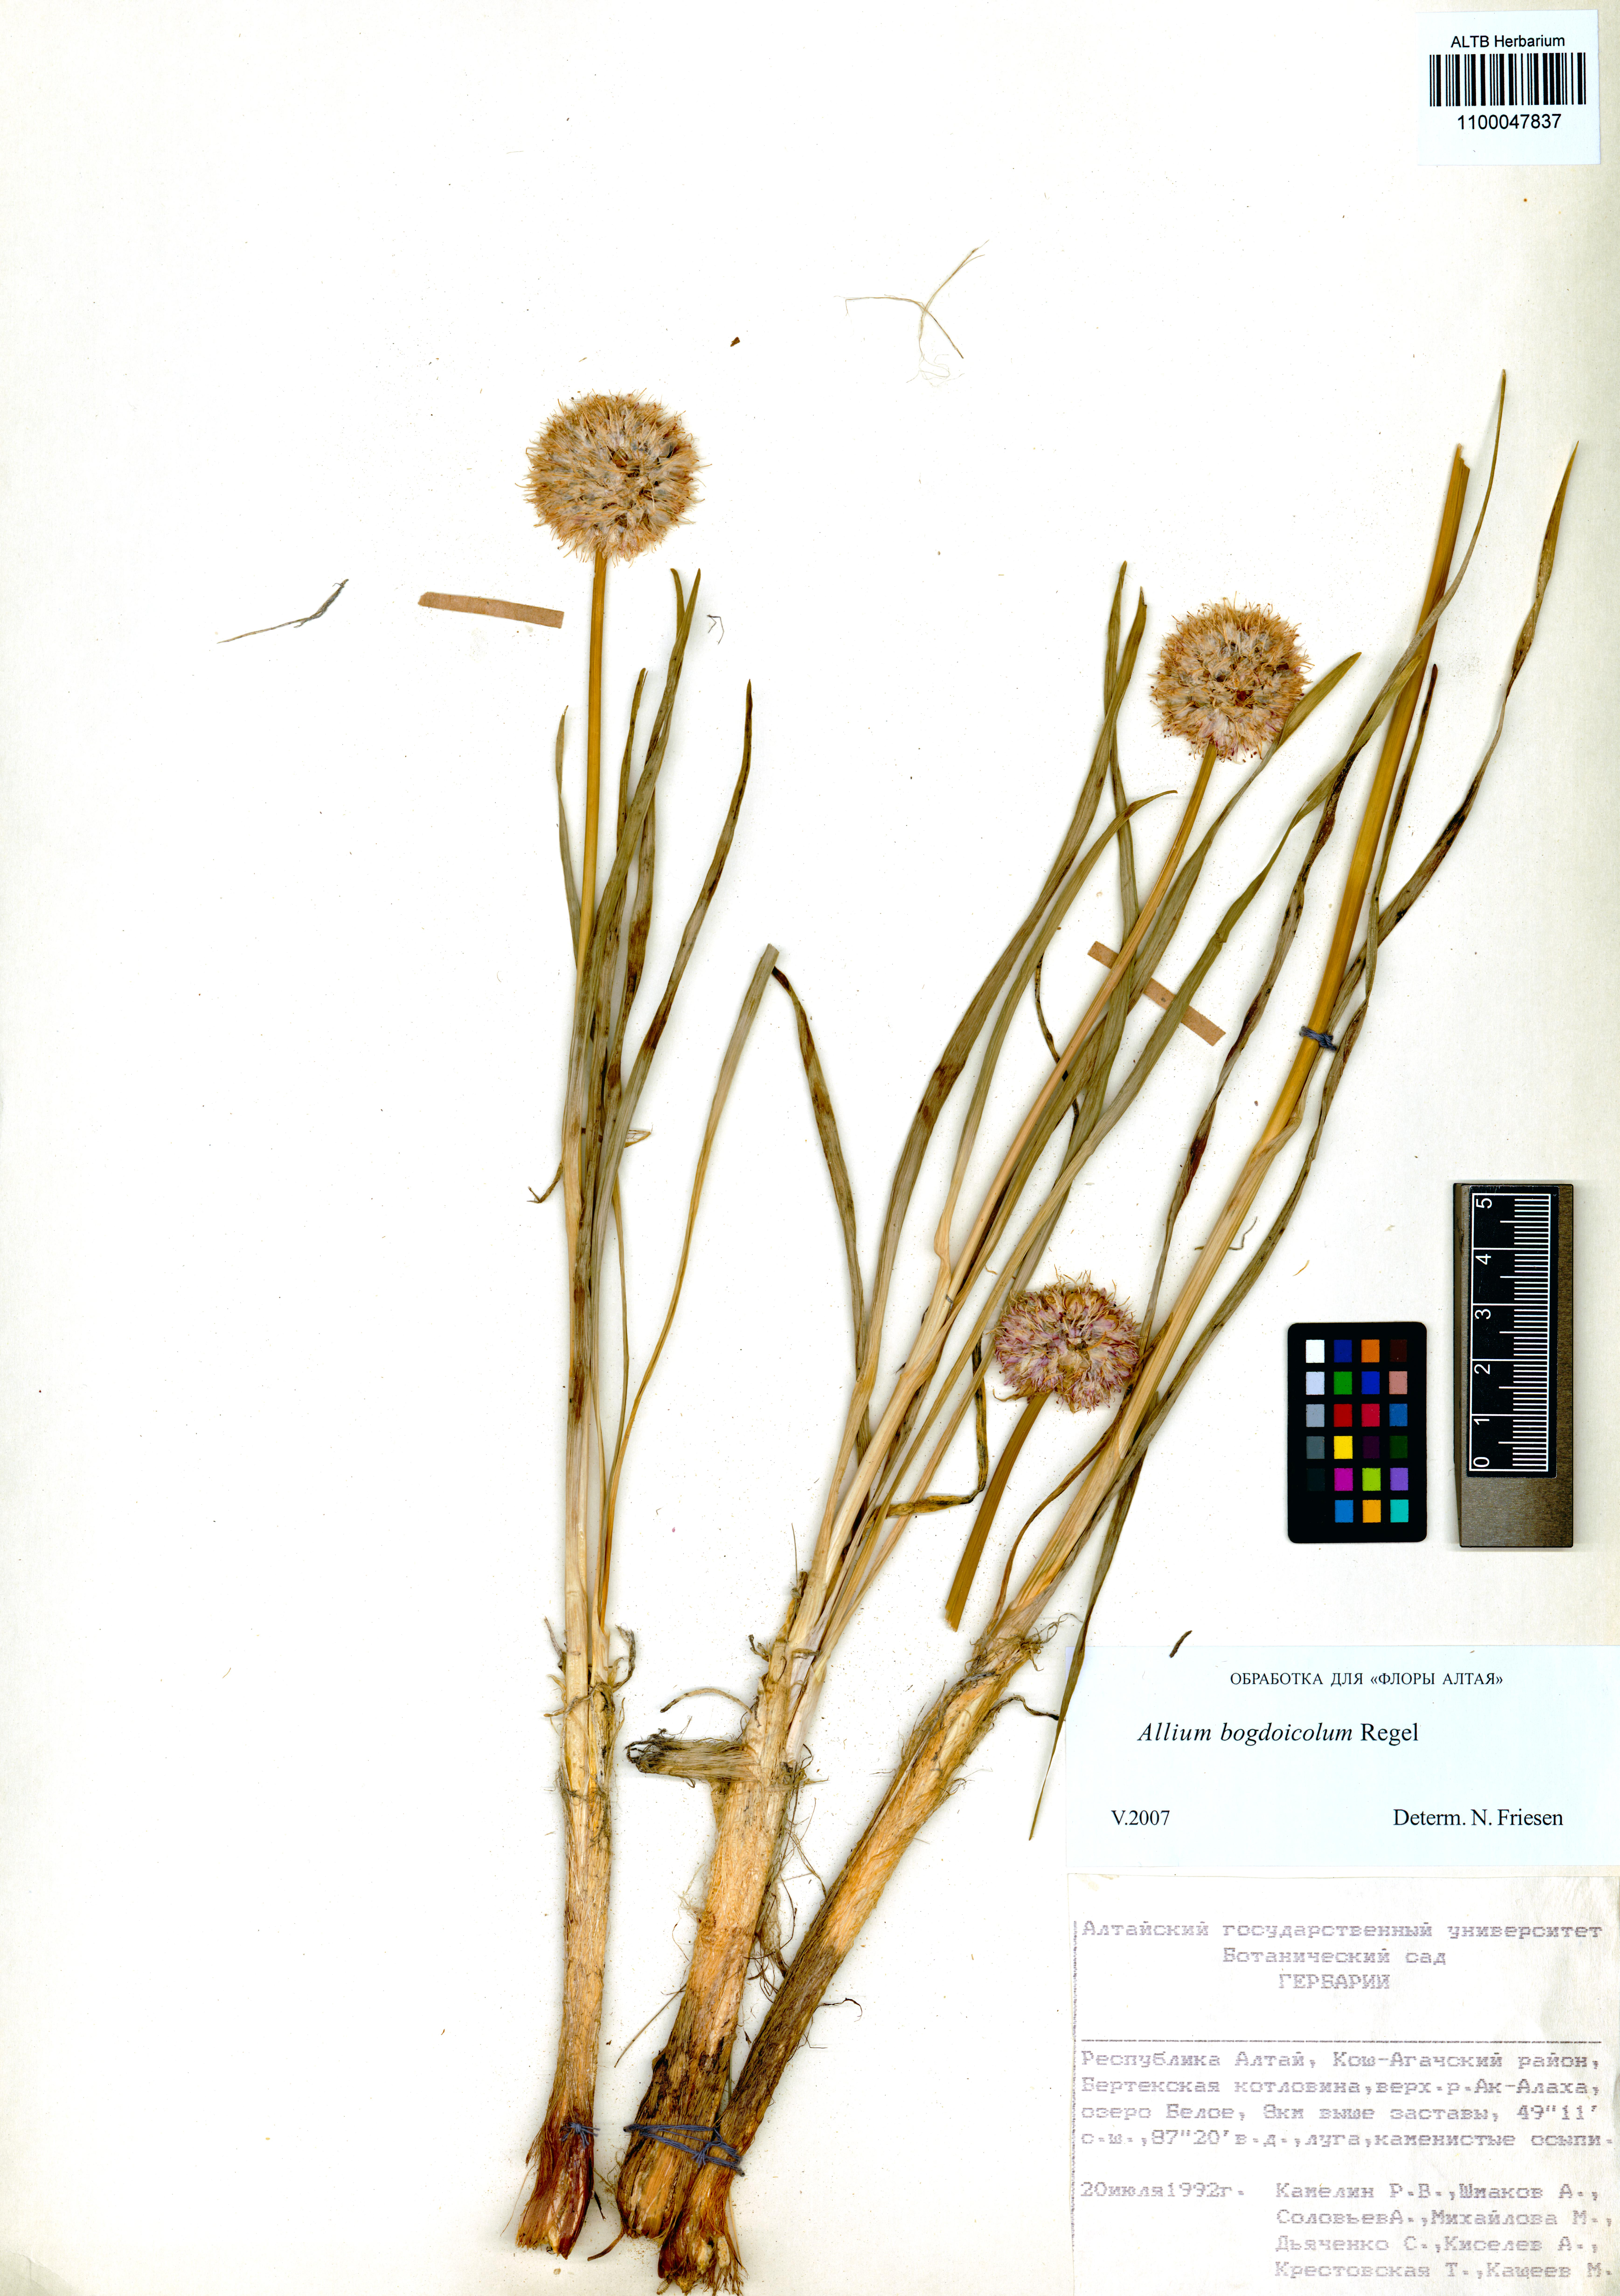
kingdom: Plantae
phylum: Tracheophyta
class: Liliopsida
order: Asparagales
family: Amaryllidaceae
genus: Allium
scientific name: Allium schrenkii
